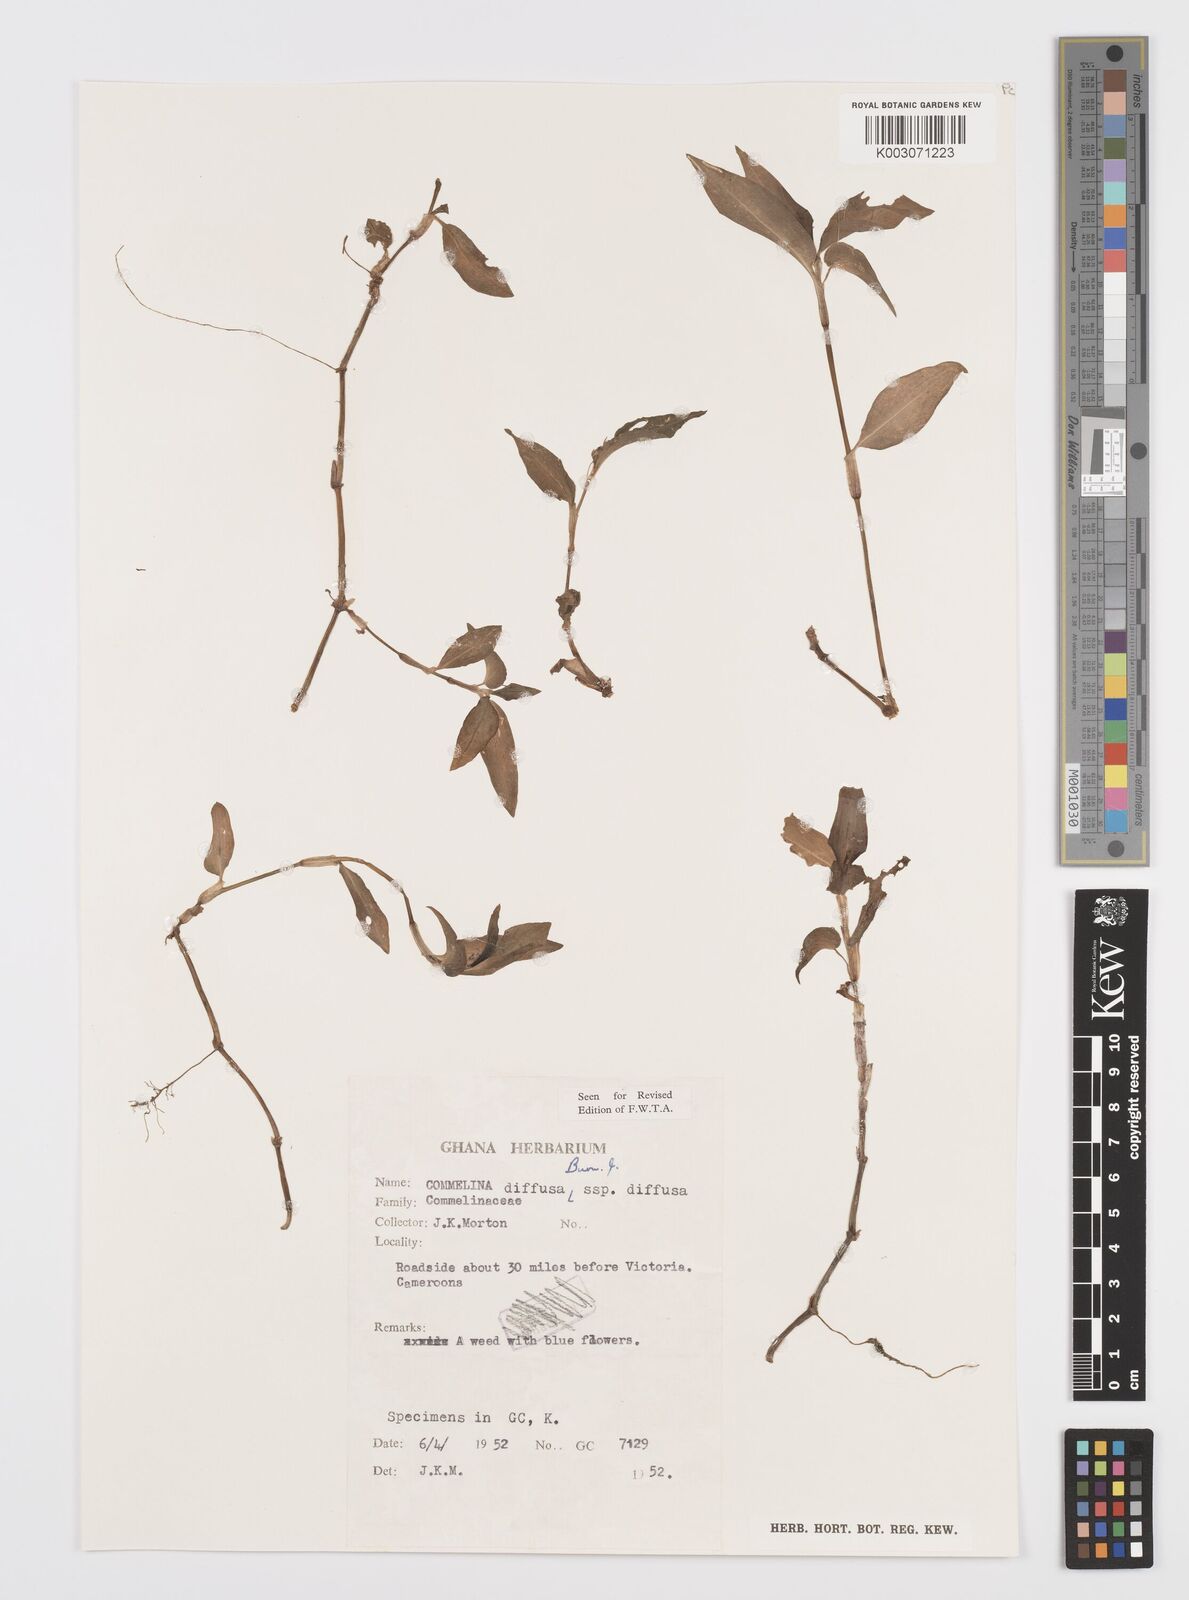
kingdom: Plantae
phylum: Tracheophyta
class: Liliopsida
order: Commelinales
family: Commelinaceae
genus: Commelina
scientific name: Commelina diffusa
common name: Climbing dayflower
